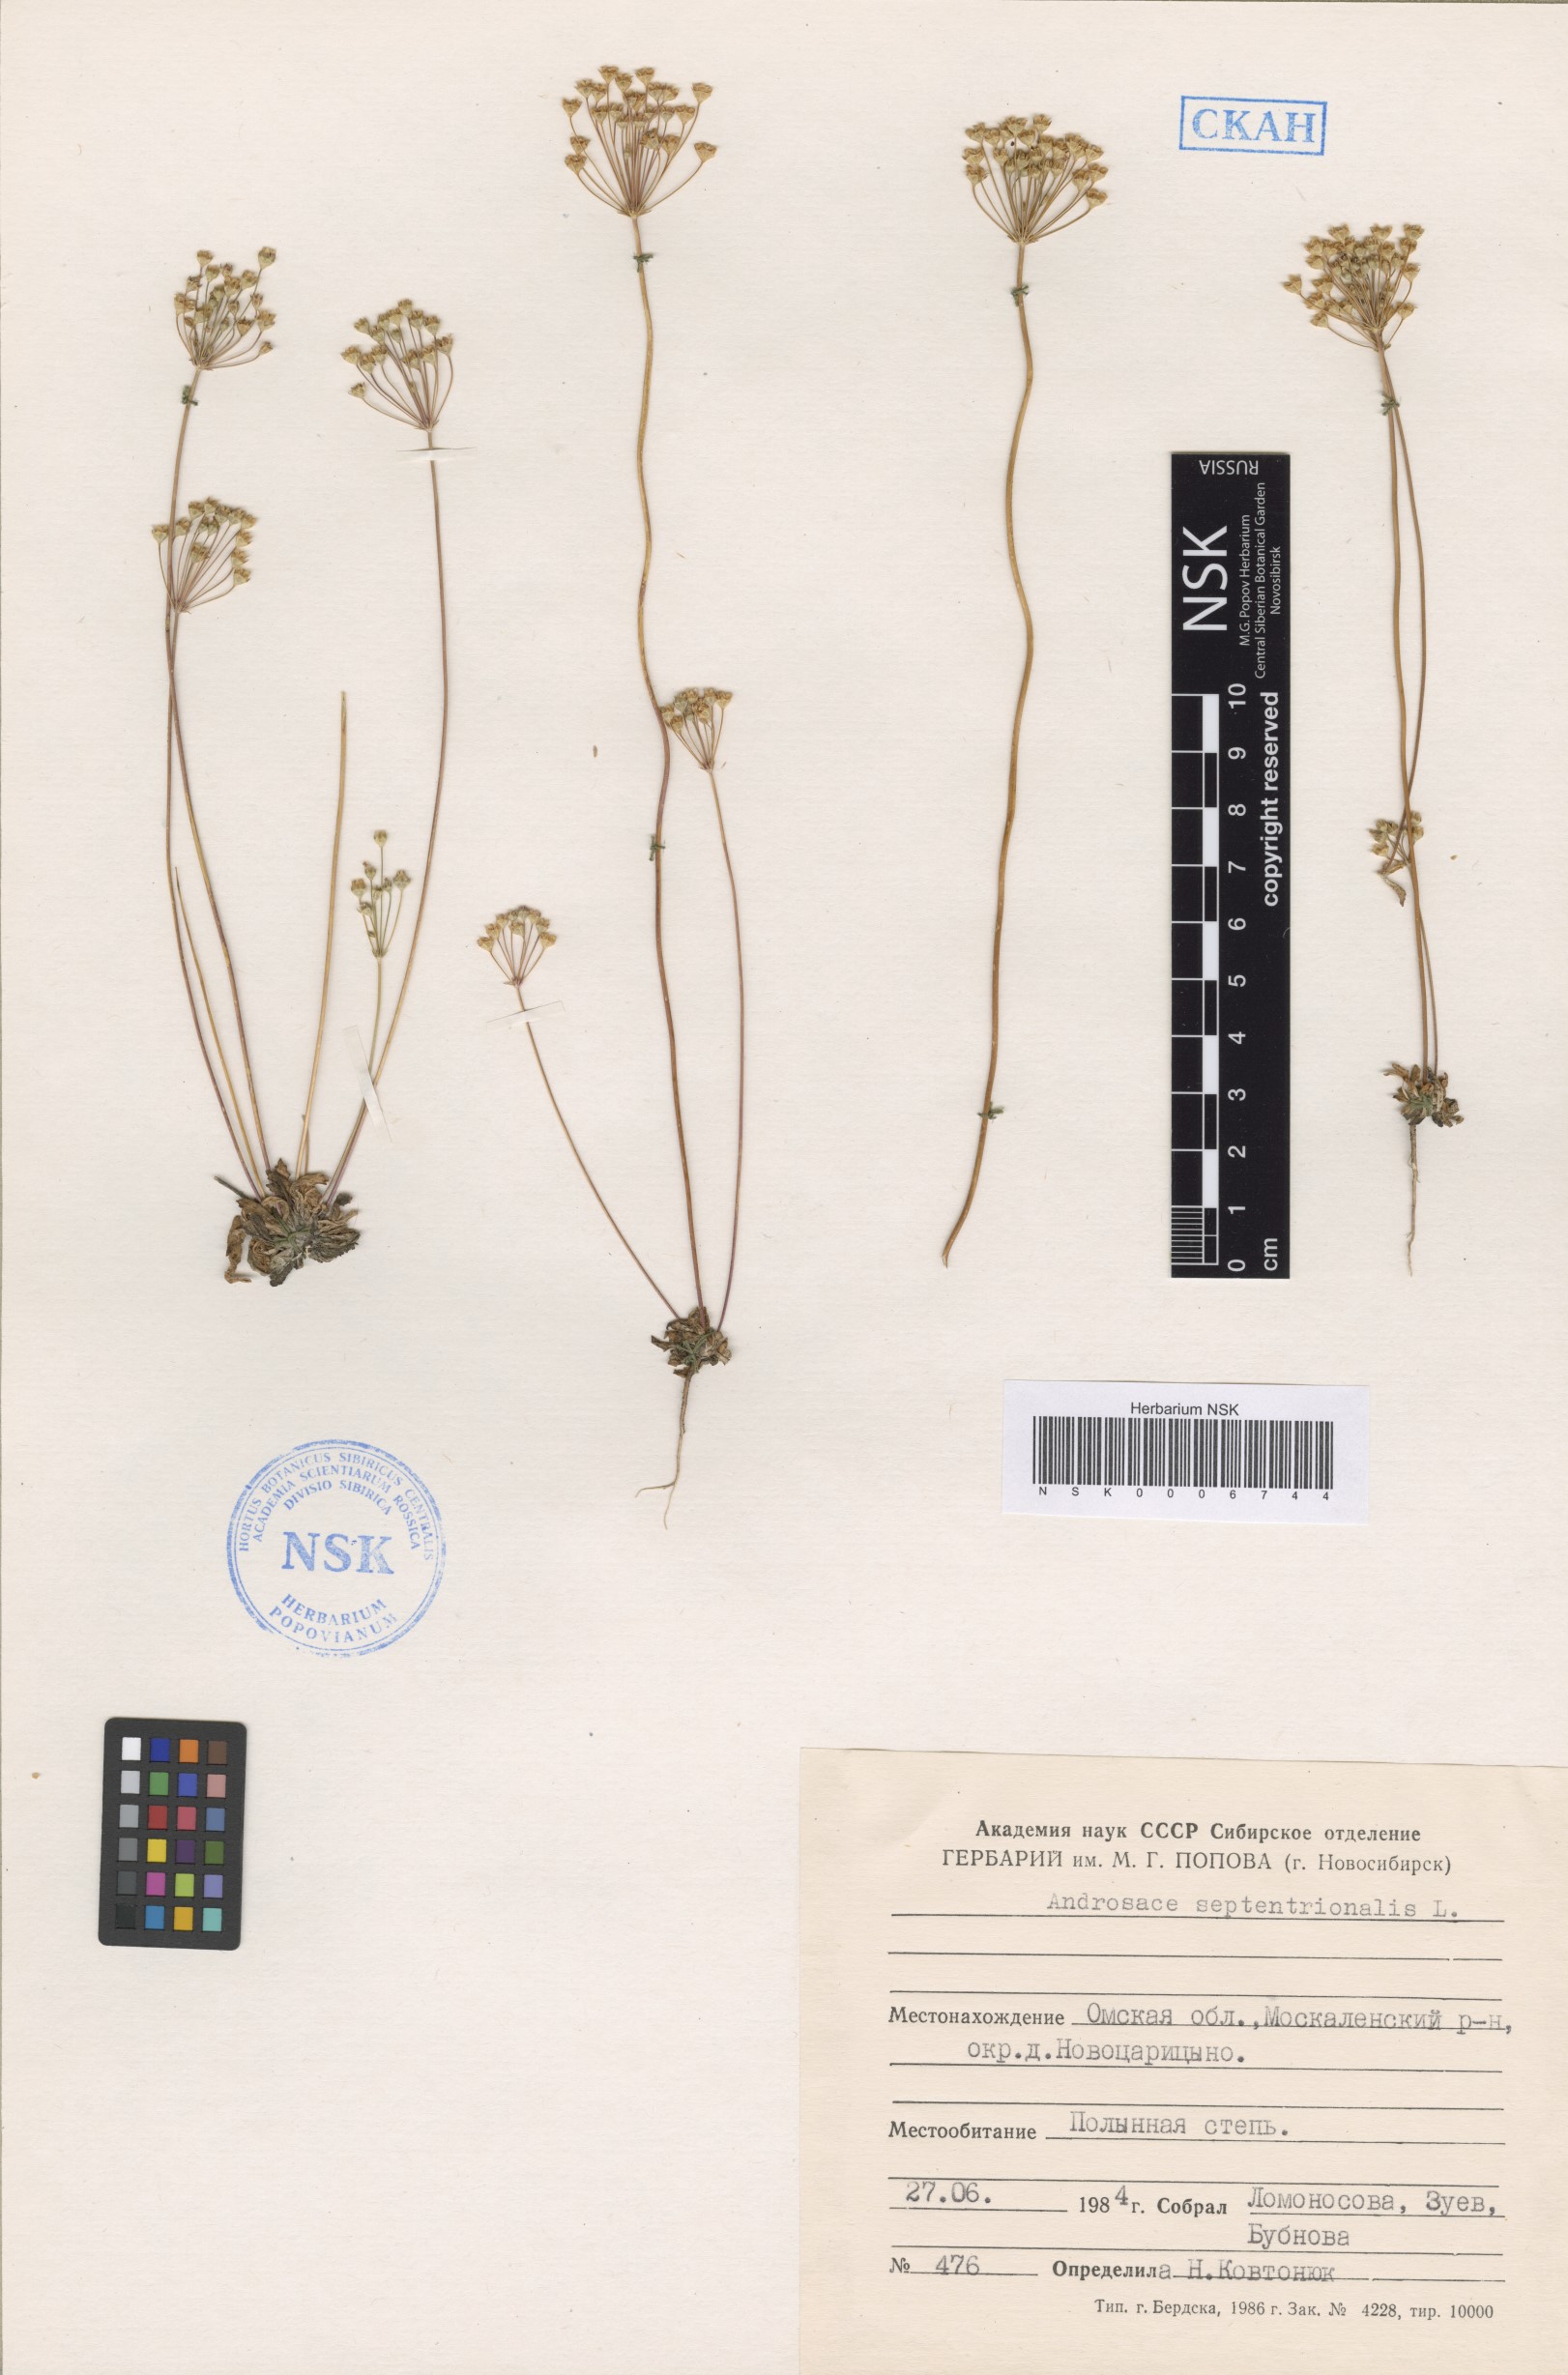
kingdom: Plantae
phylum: Tracheophyta
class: Magnoliopsida
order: Ericales
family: Primulaceae
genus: Androsace
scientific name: Androsace septentrionalis
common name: Hairy northern fairy-candelabra
